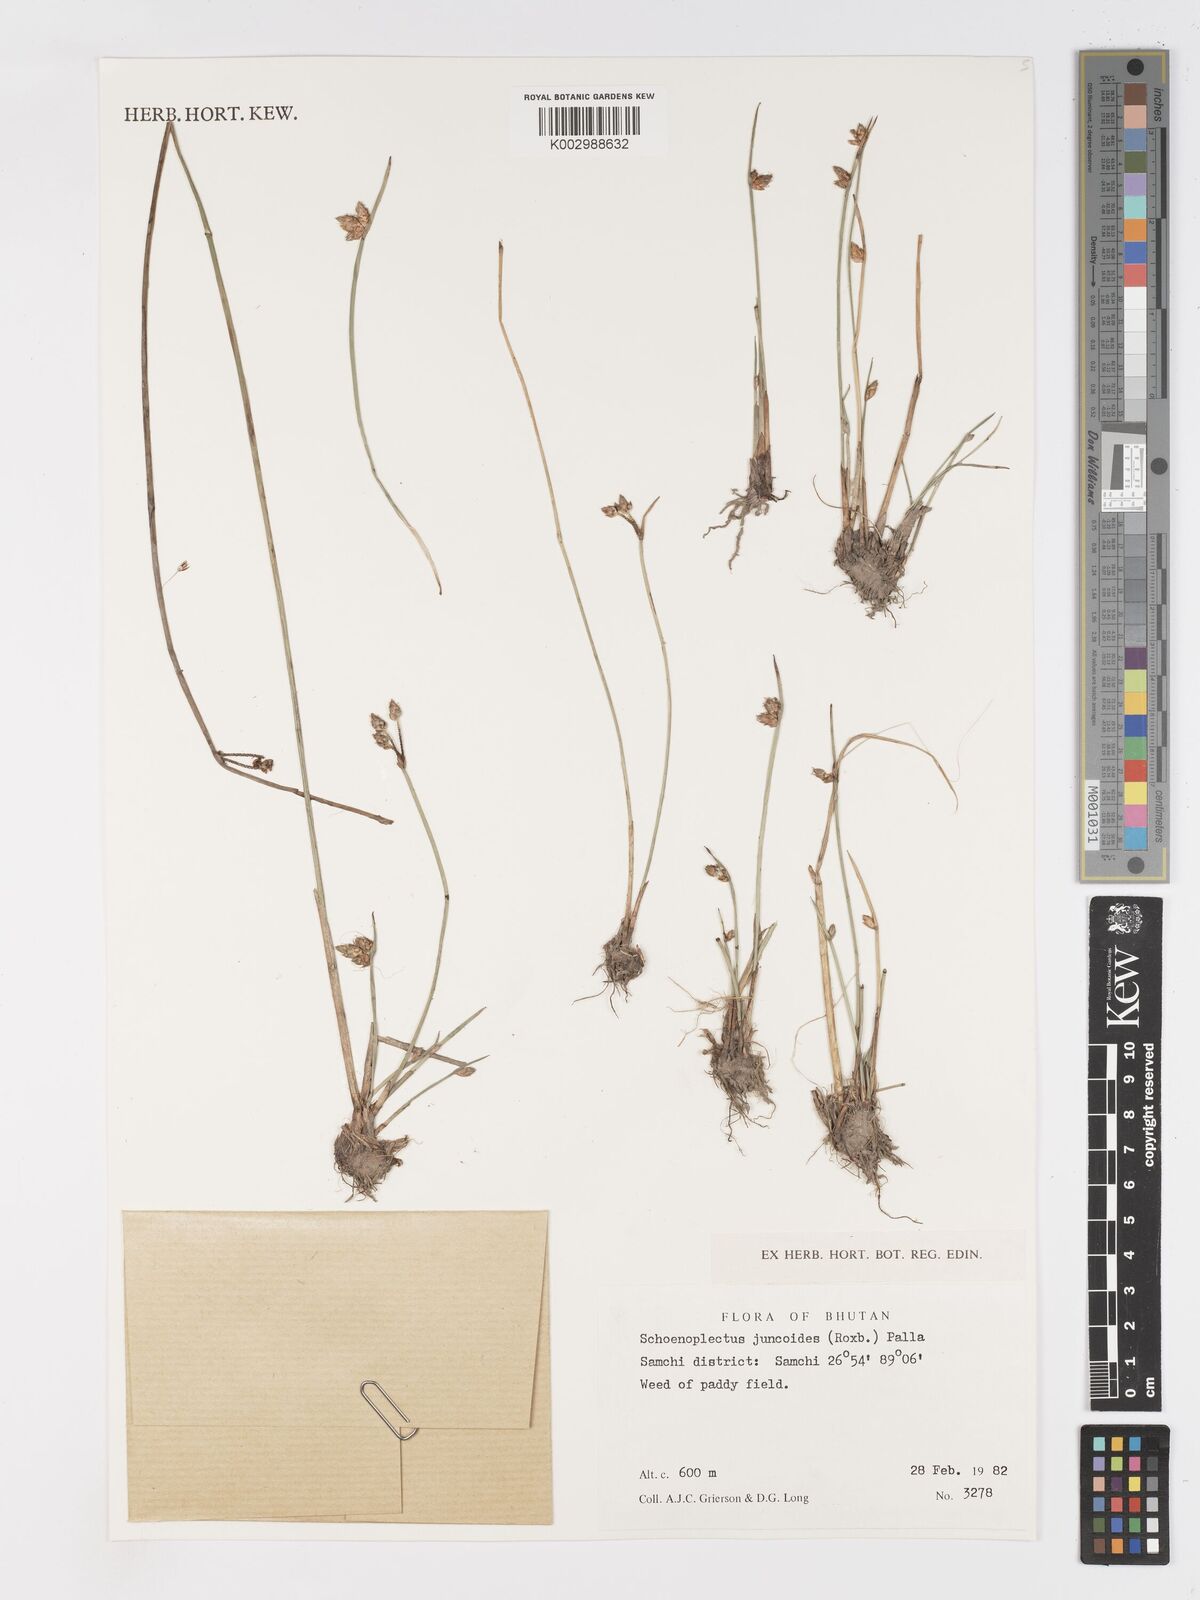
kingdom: Plantae
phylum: Tracheophyta
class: Liliopsida
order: Poales
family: Cyperaceae
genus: Schoenoplectiella
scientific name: Schoenoplectiella juncoides
